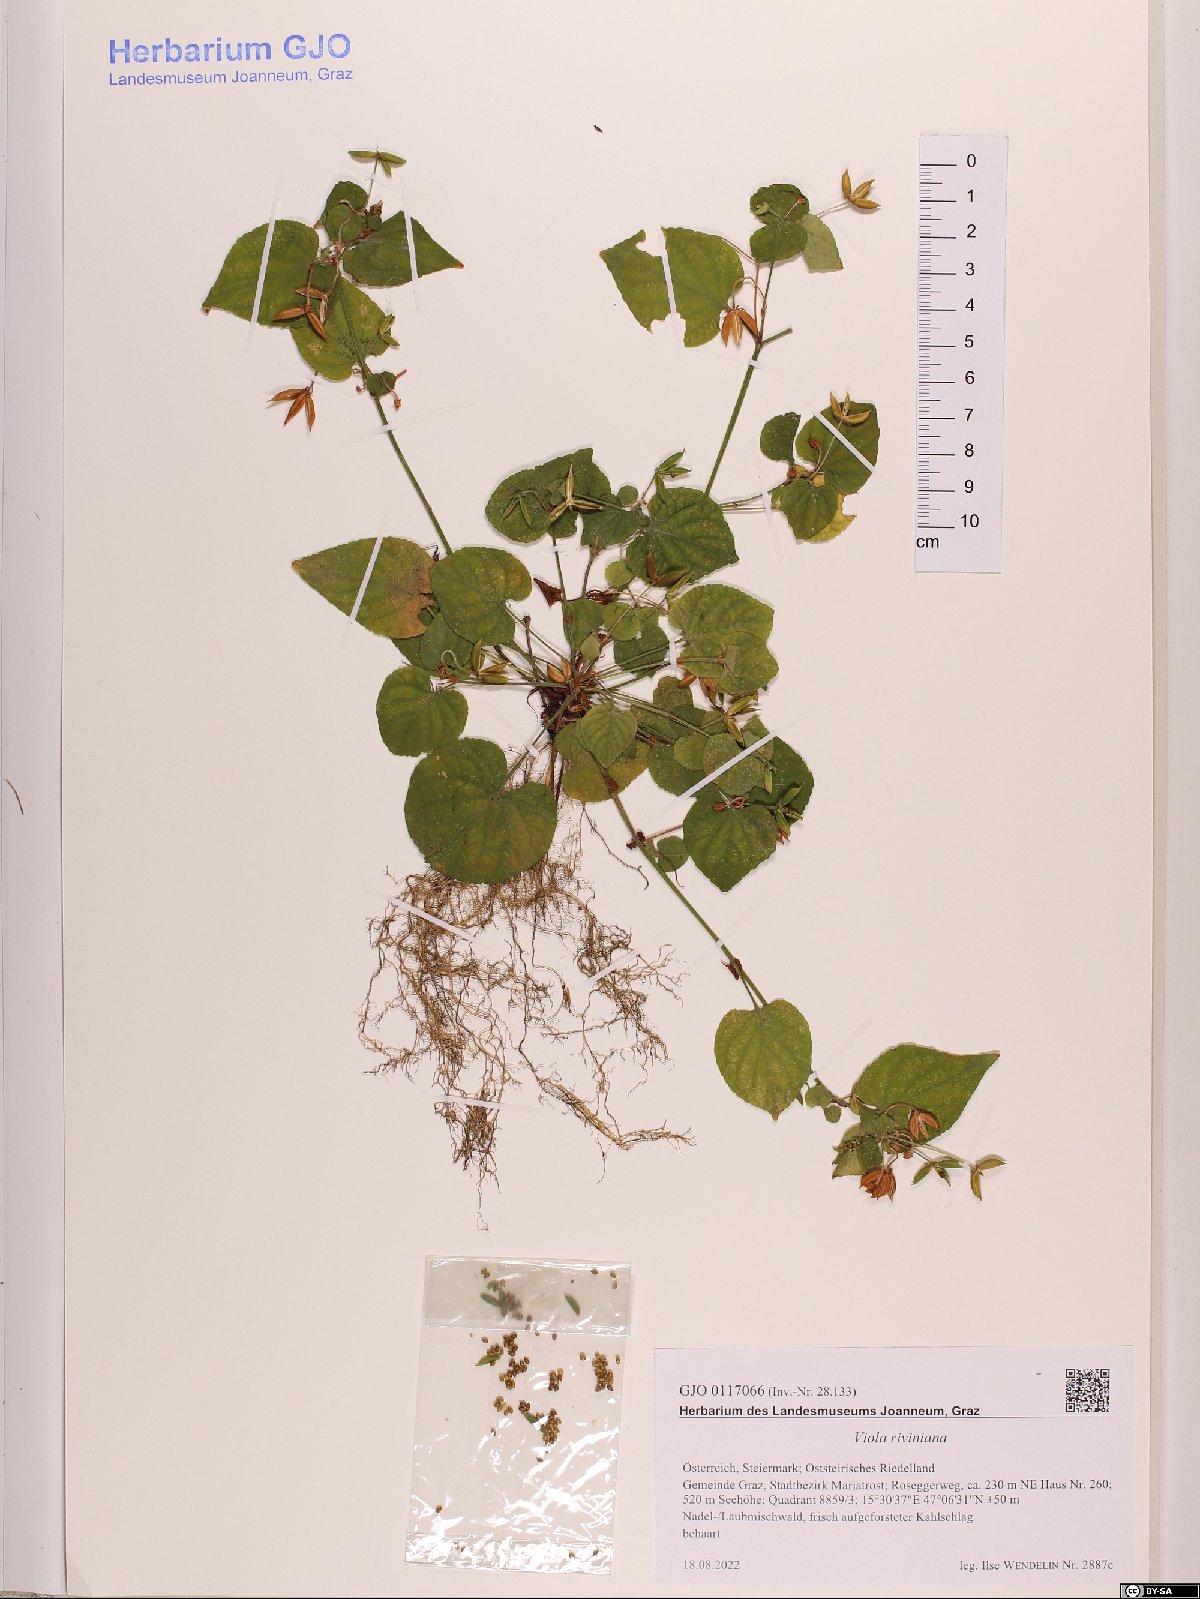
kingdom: Plantae
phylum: Tracheophyta
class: Magnoliopsida
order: Malpighiales
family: Violaceae
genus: Viola
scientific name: Viola riviniana
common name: Common dog-violet
